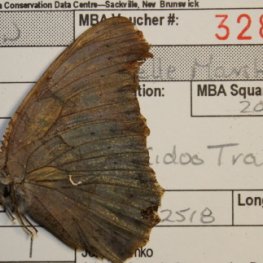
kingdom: Animalia
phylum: Arthropoda
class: Insecta
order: Lepidoptera
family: Nymphalidae
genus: Polygonia
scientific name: Polygonia interrogationis
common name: Question Mark
